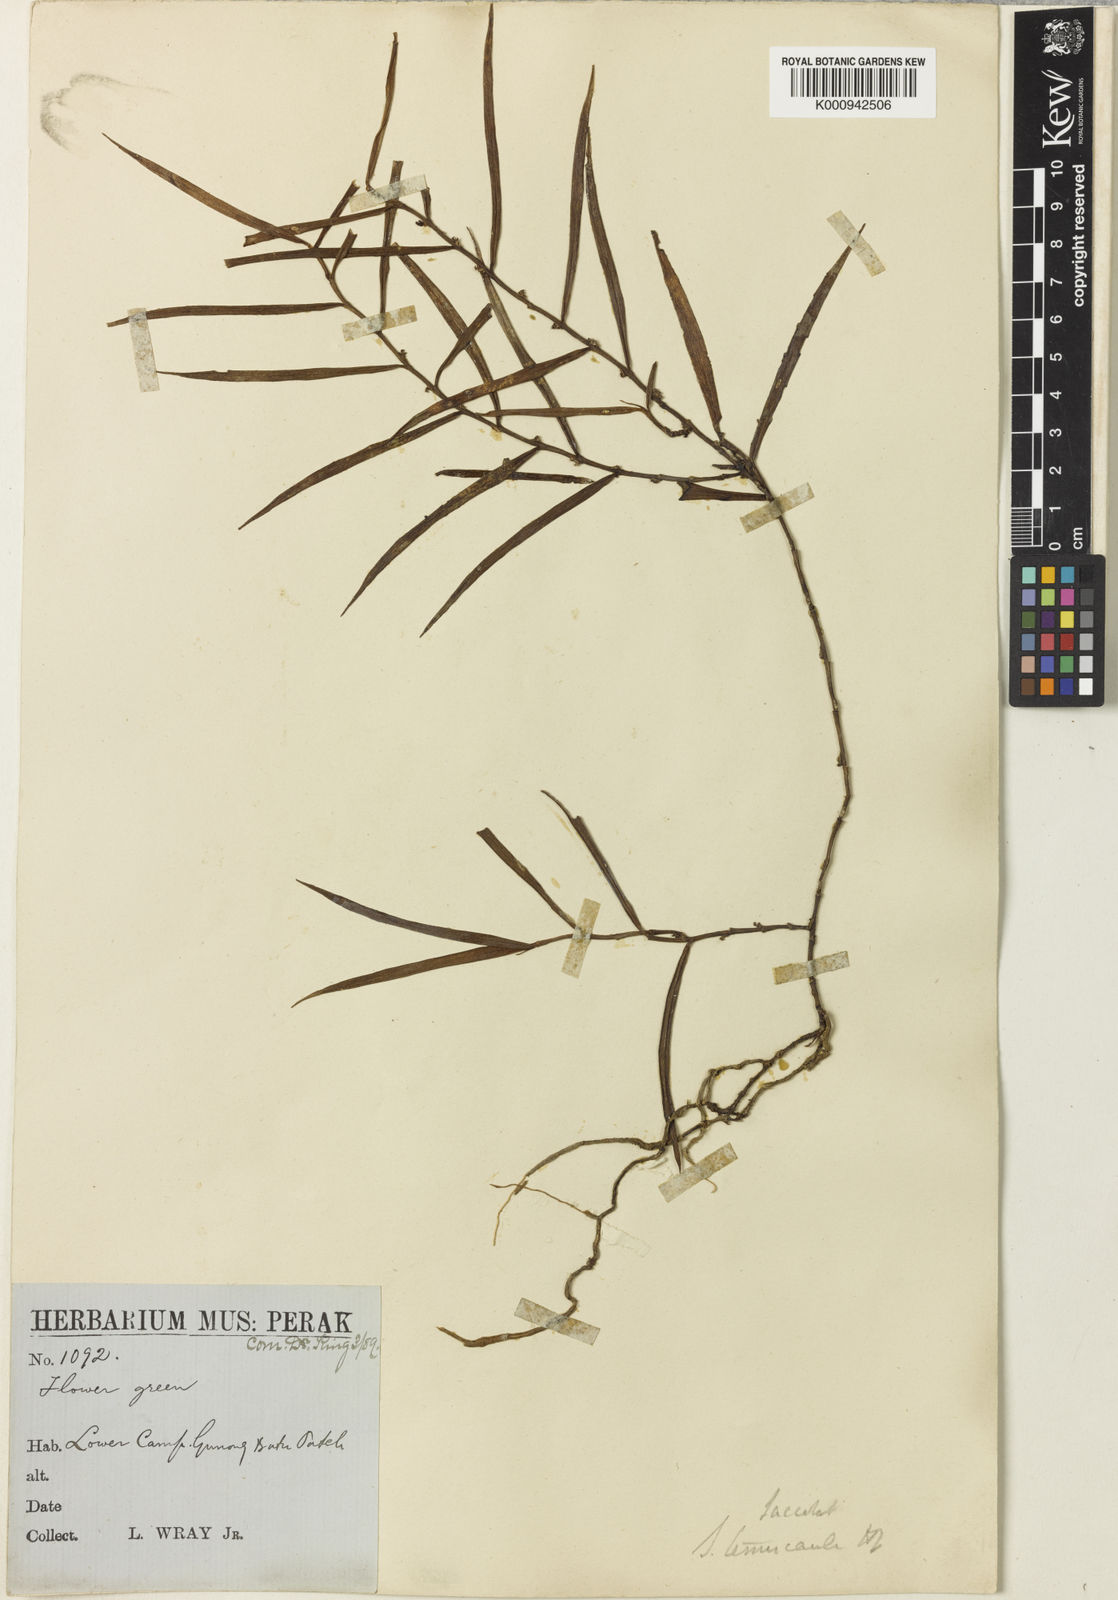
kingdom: Plantae
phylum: Tracheophyta
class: Liliopsida
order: Asparagales
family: Orchidaceae
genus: Trichoglottis
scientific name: Trichoglottis ventricularis
